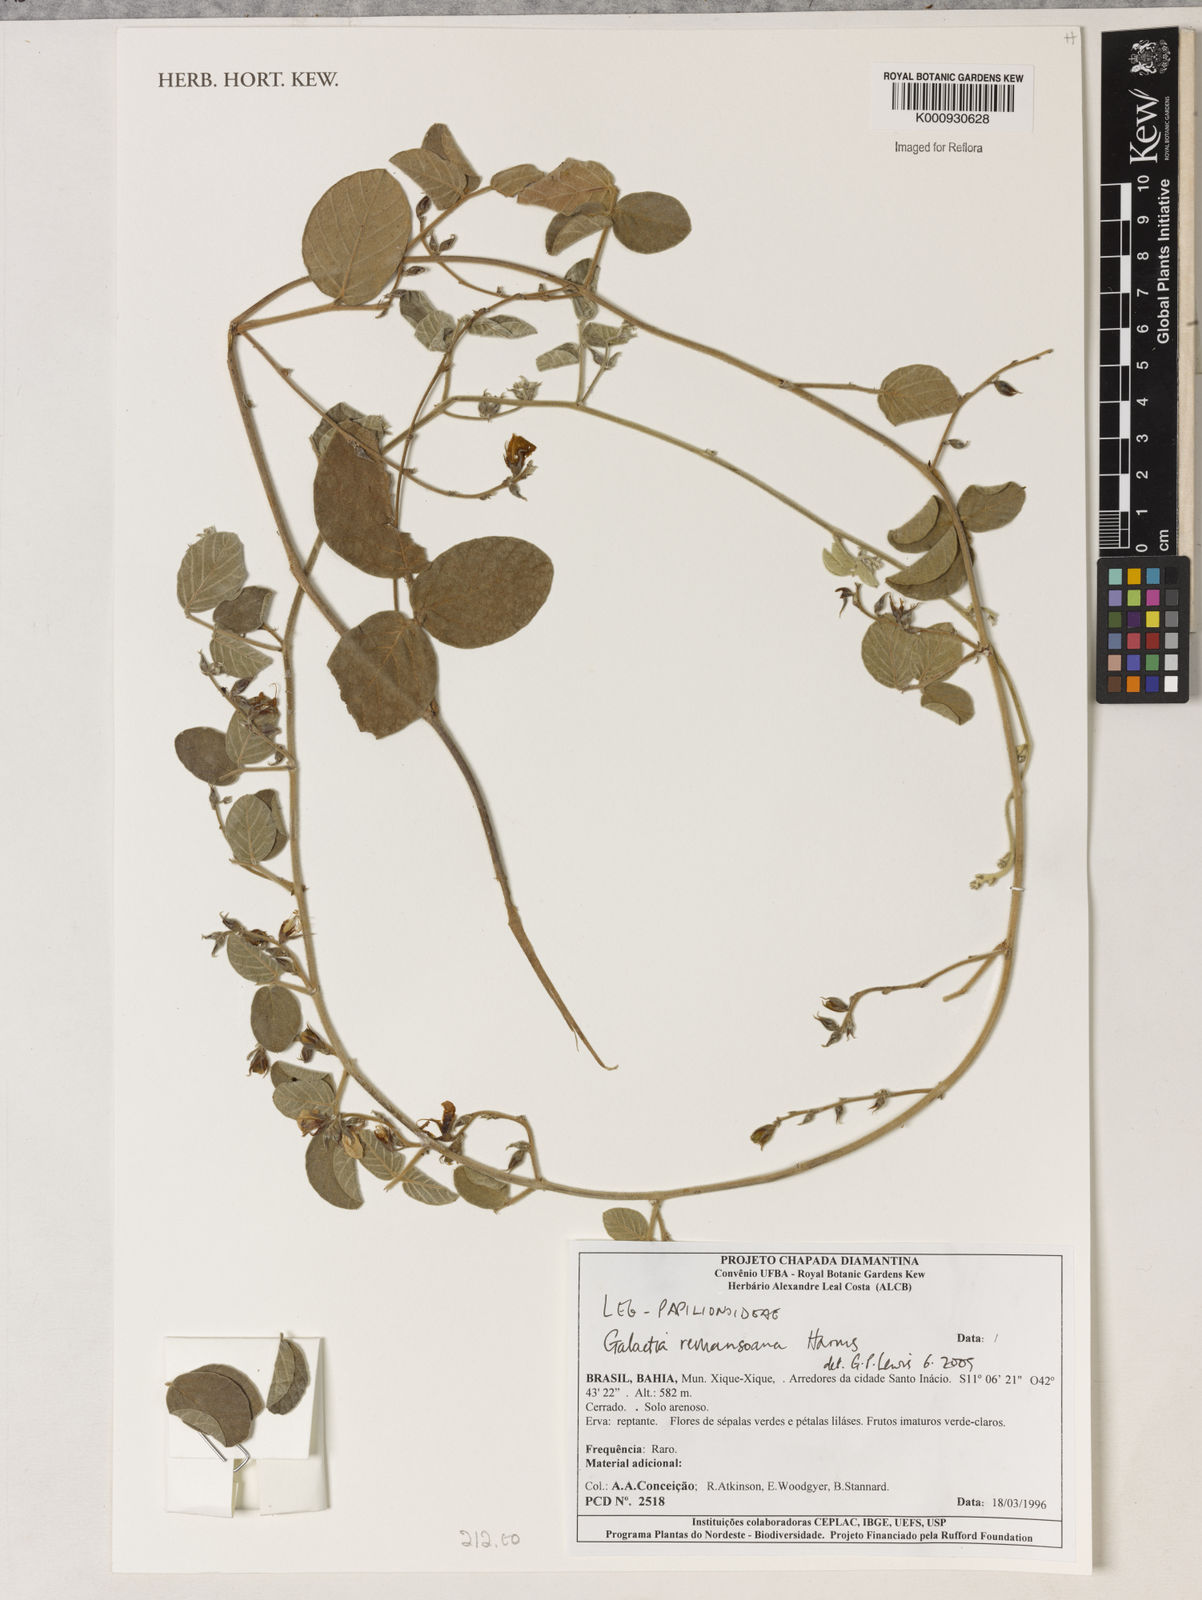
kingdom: Plantae
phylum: Tracheophyta
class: Magnoliopsida
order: Fabales
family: Fabaceae
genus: Galactia
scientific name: Galactia remansoana
